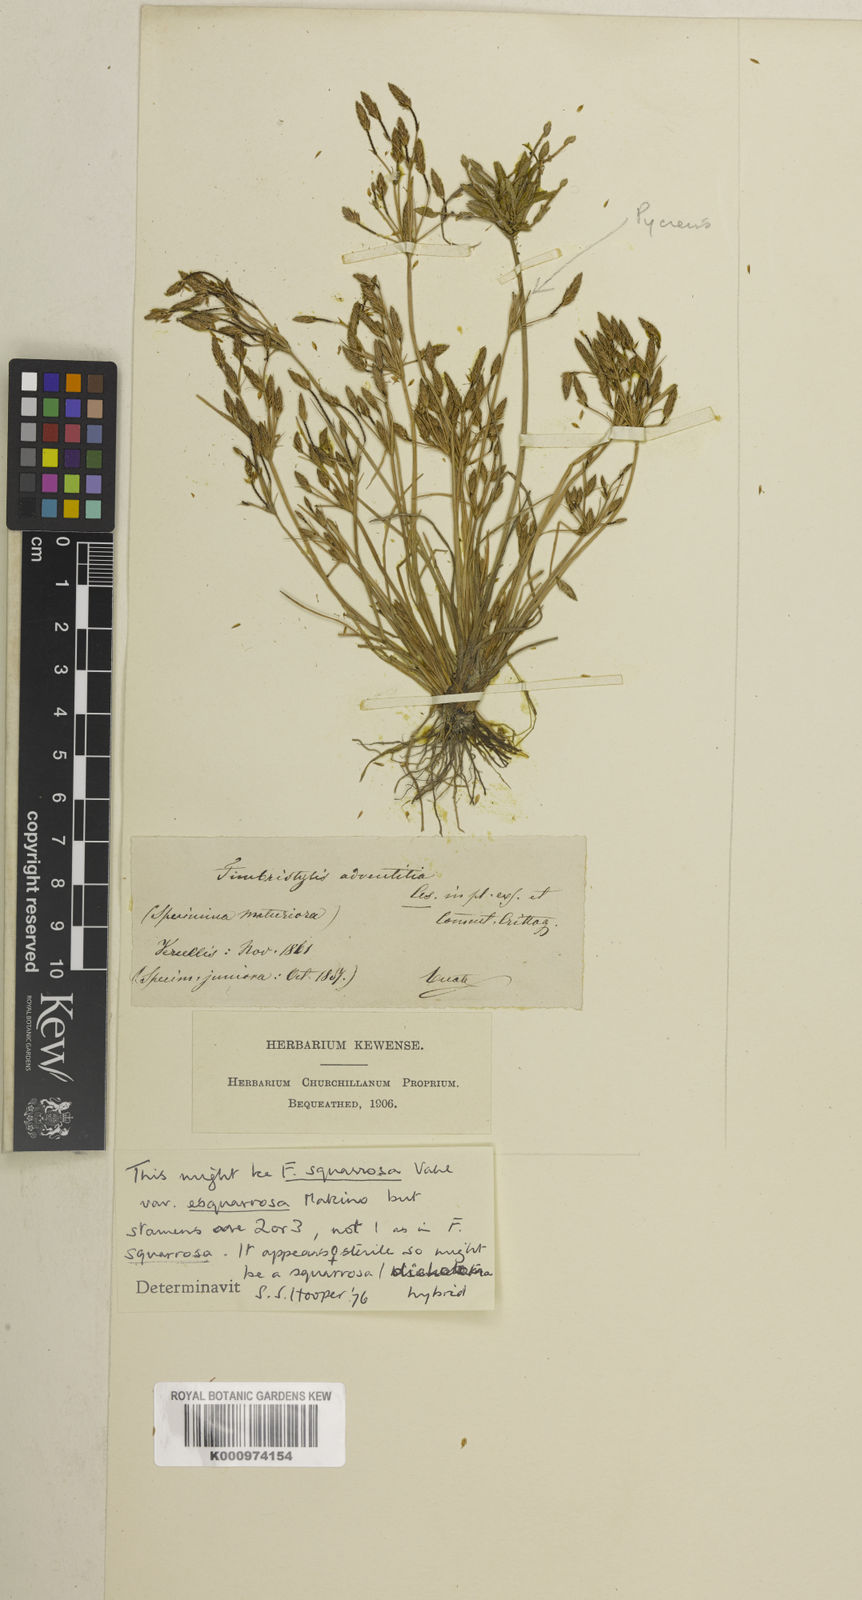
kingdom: Plantae
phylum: Tracheophyta
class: Liliopsida
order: Poales
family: Cyperaceae
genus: Fimbristylis
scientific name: Fimbristylis squarrosa
